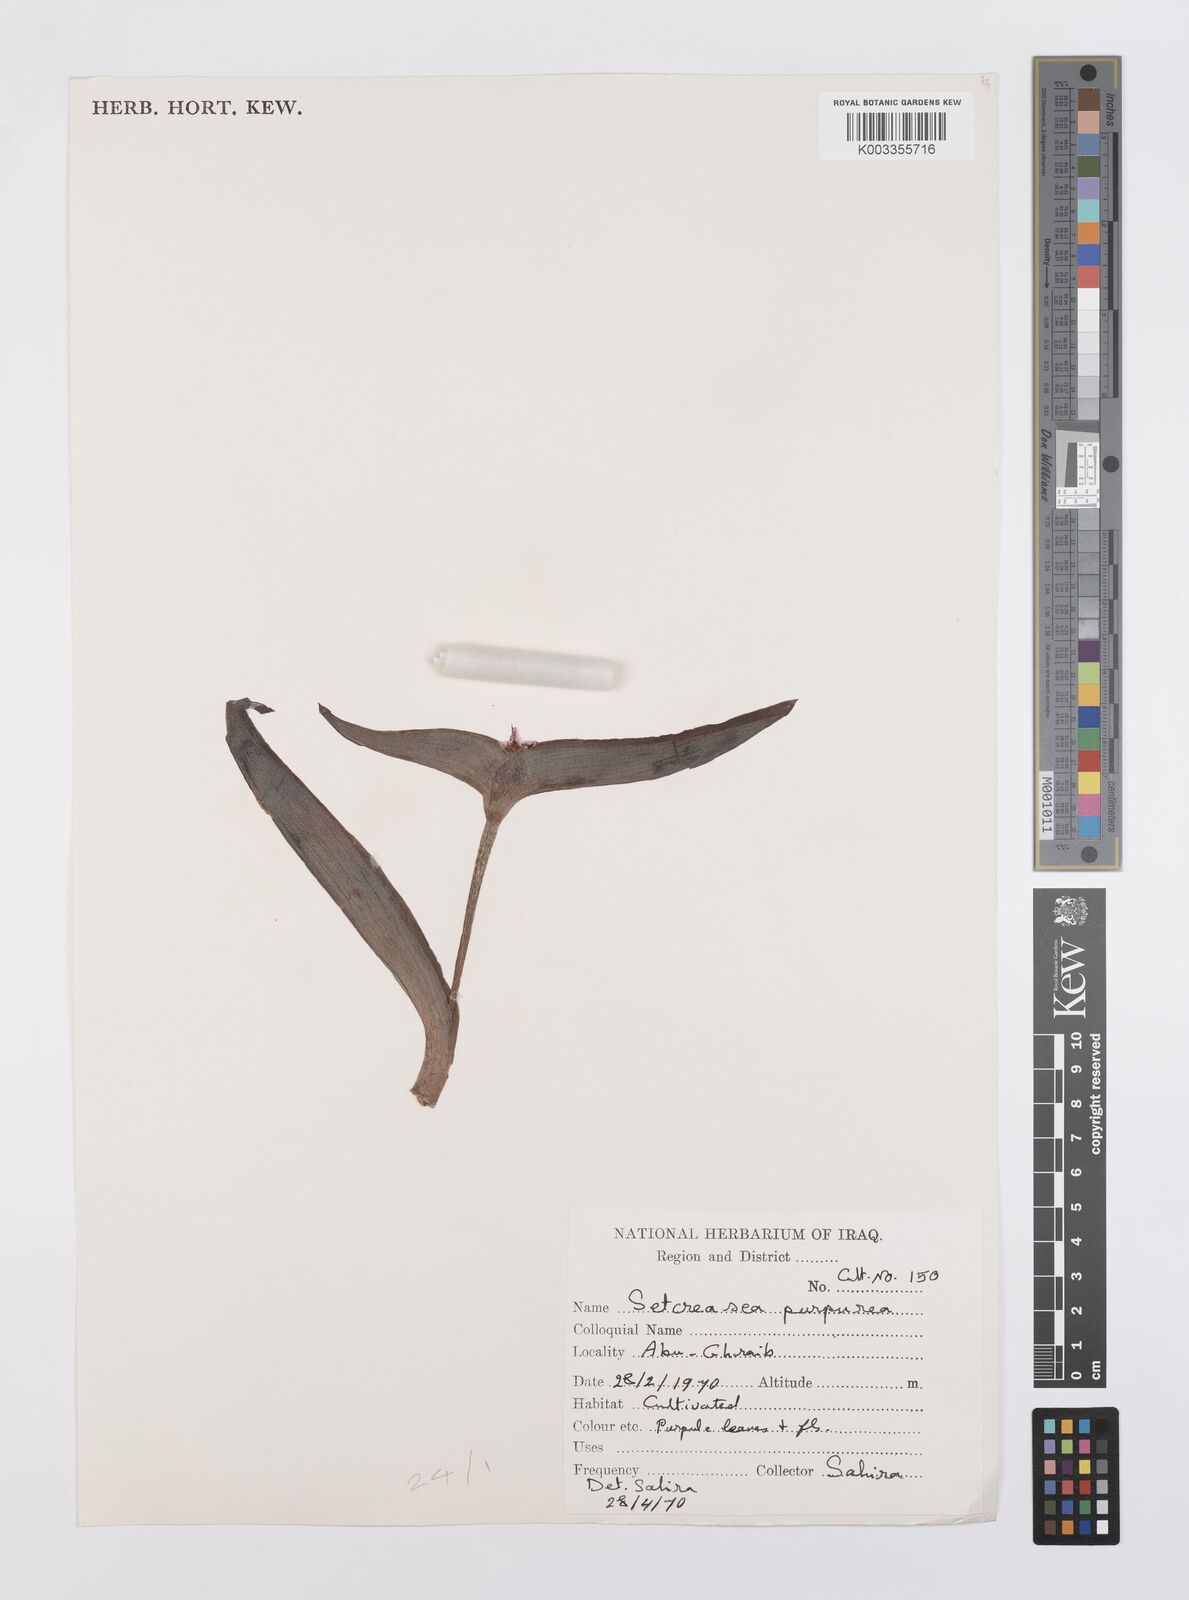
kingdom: Plantae
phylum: Tracheophyta
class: Liliopsida
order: Commelinales
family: Commelinaceae
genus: Callisia
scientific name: Callisia purpurascens
